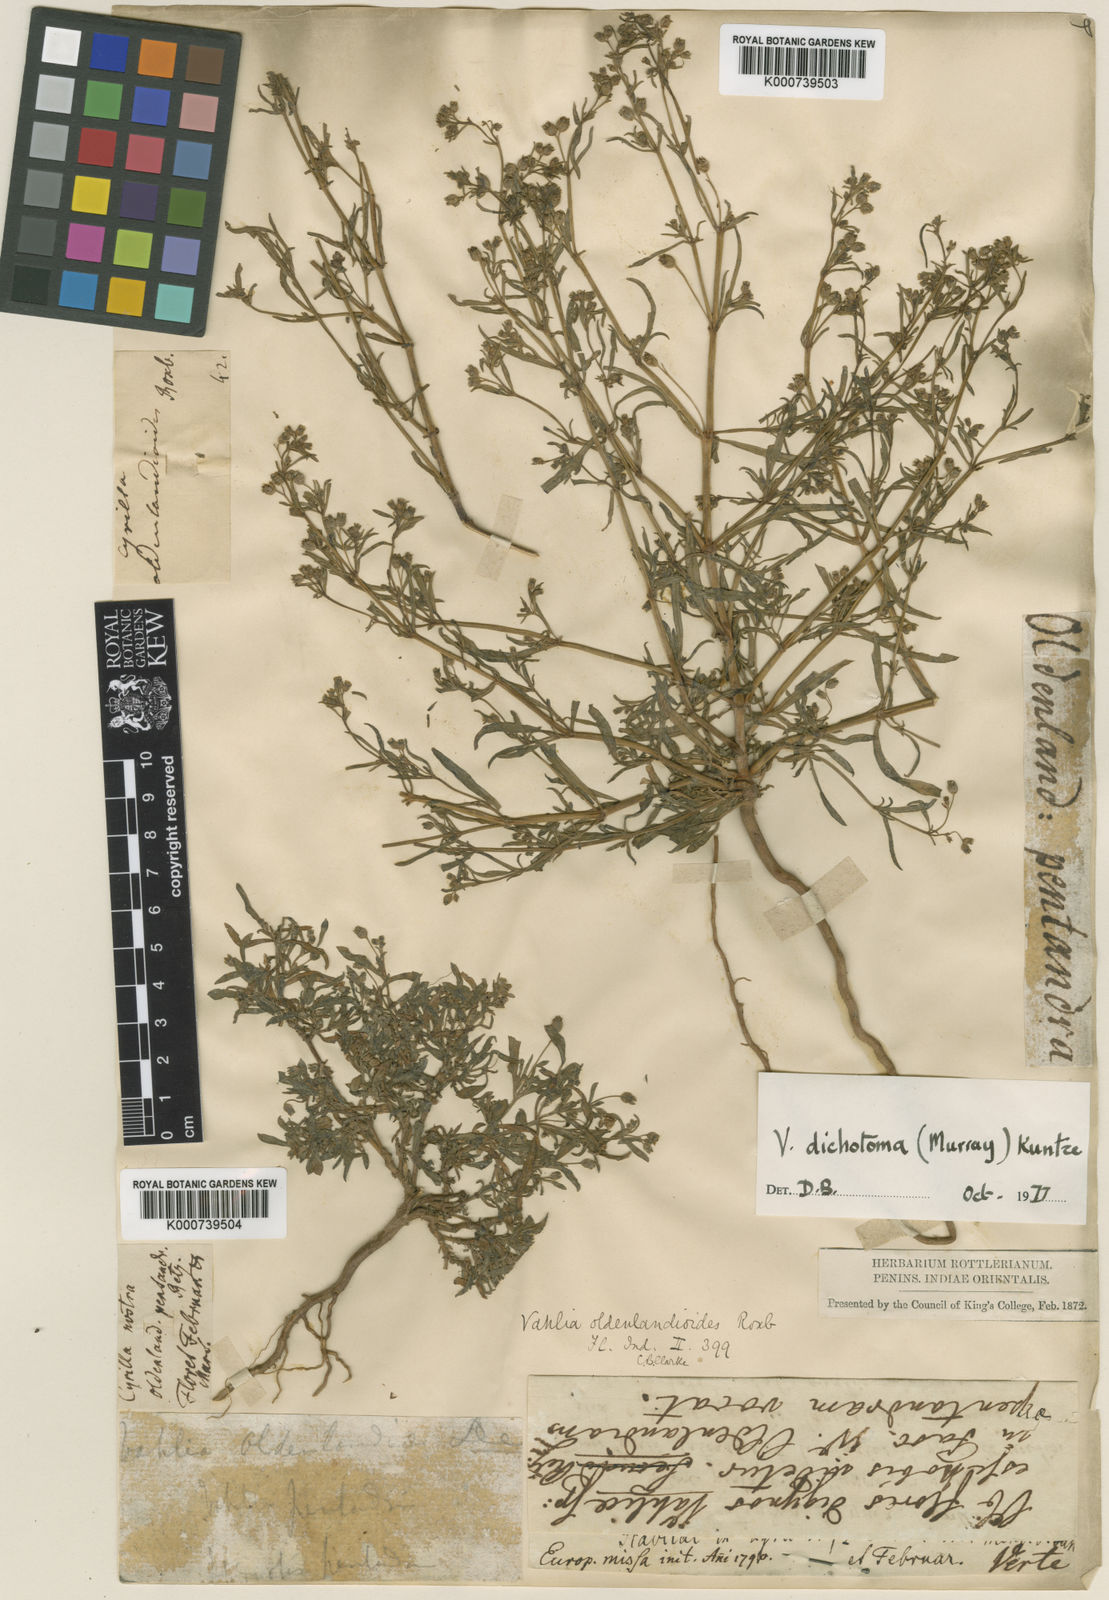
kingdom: Plantae
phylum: Tracheophyta
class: Magnoliopsida
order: Vahliales
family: Vahliaceae
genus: Vahlia
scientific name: Vahlia dichotoma
